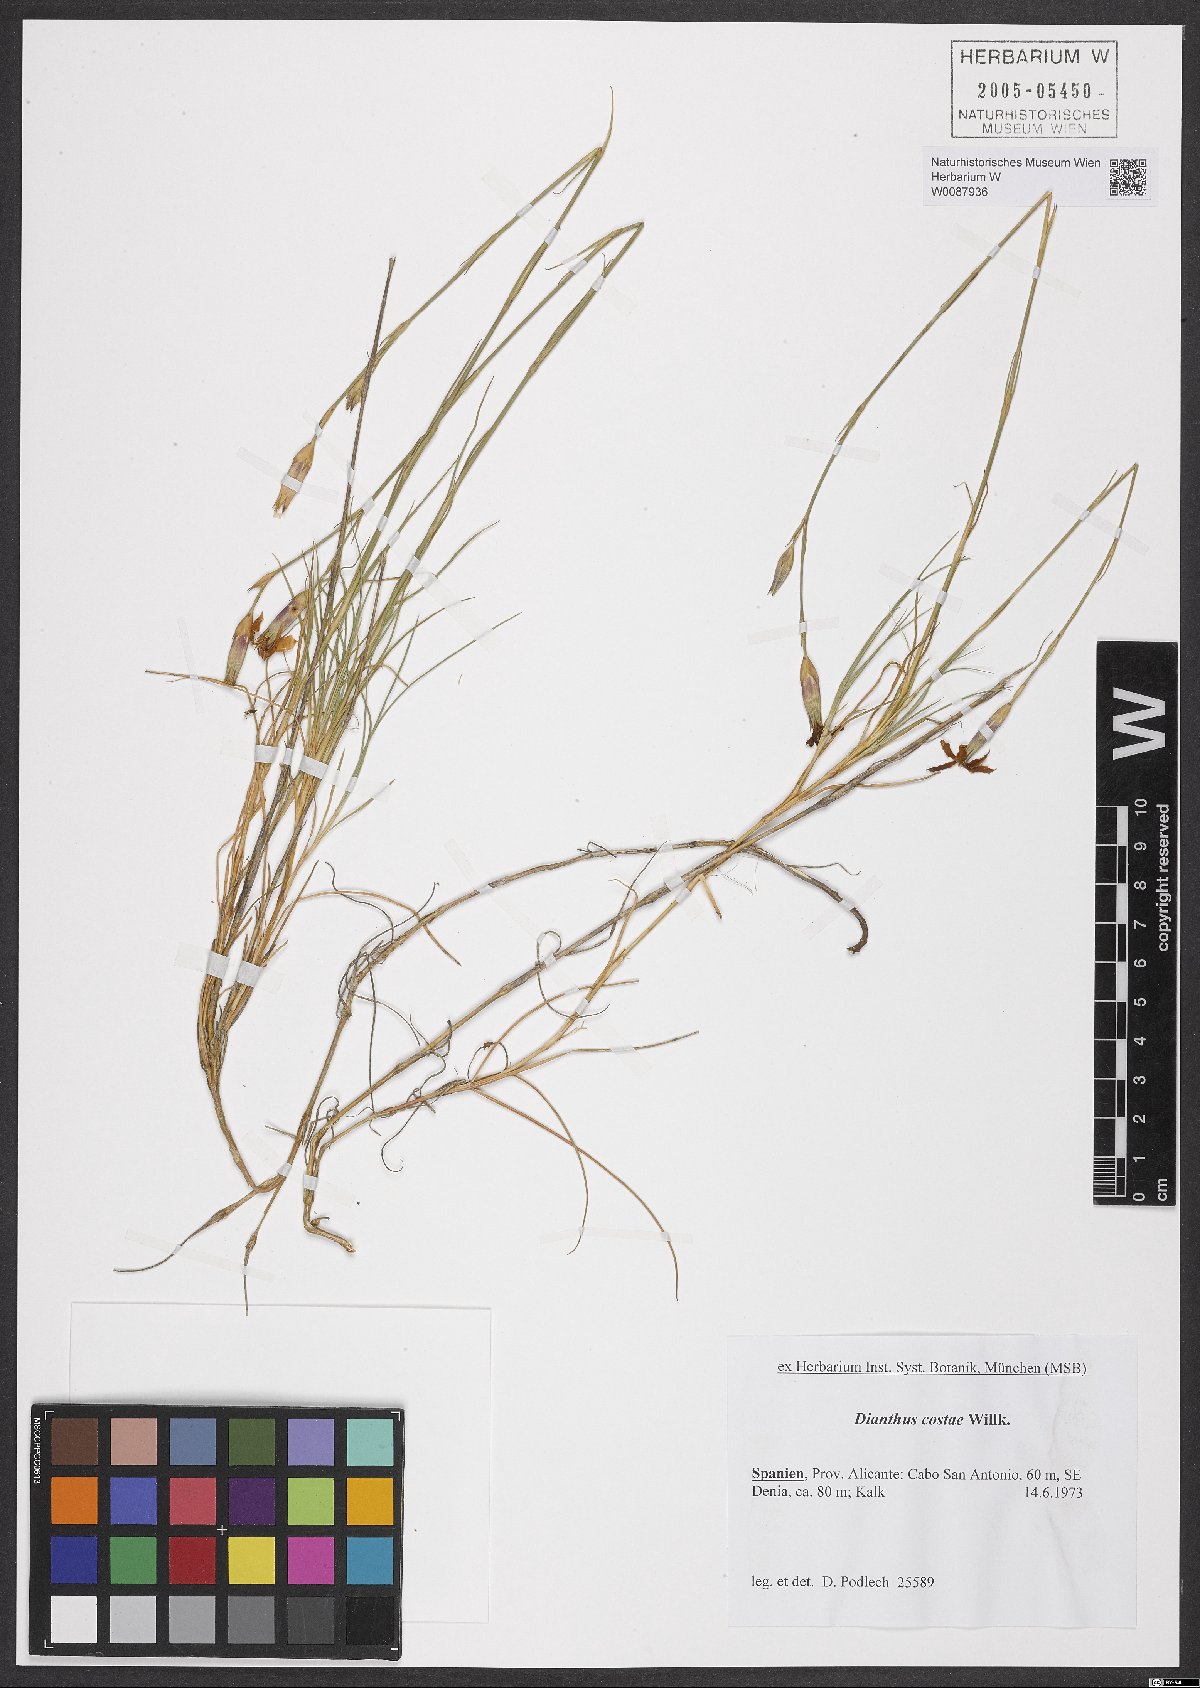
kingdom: Plantae
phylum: Tracheophyta
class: Magnoliopsida
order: Caryophyllales
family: Caryophyllaceae
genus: Dianthus
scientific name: Dianthus algetanus
